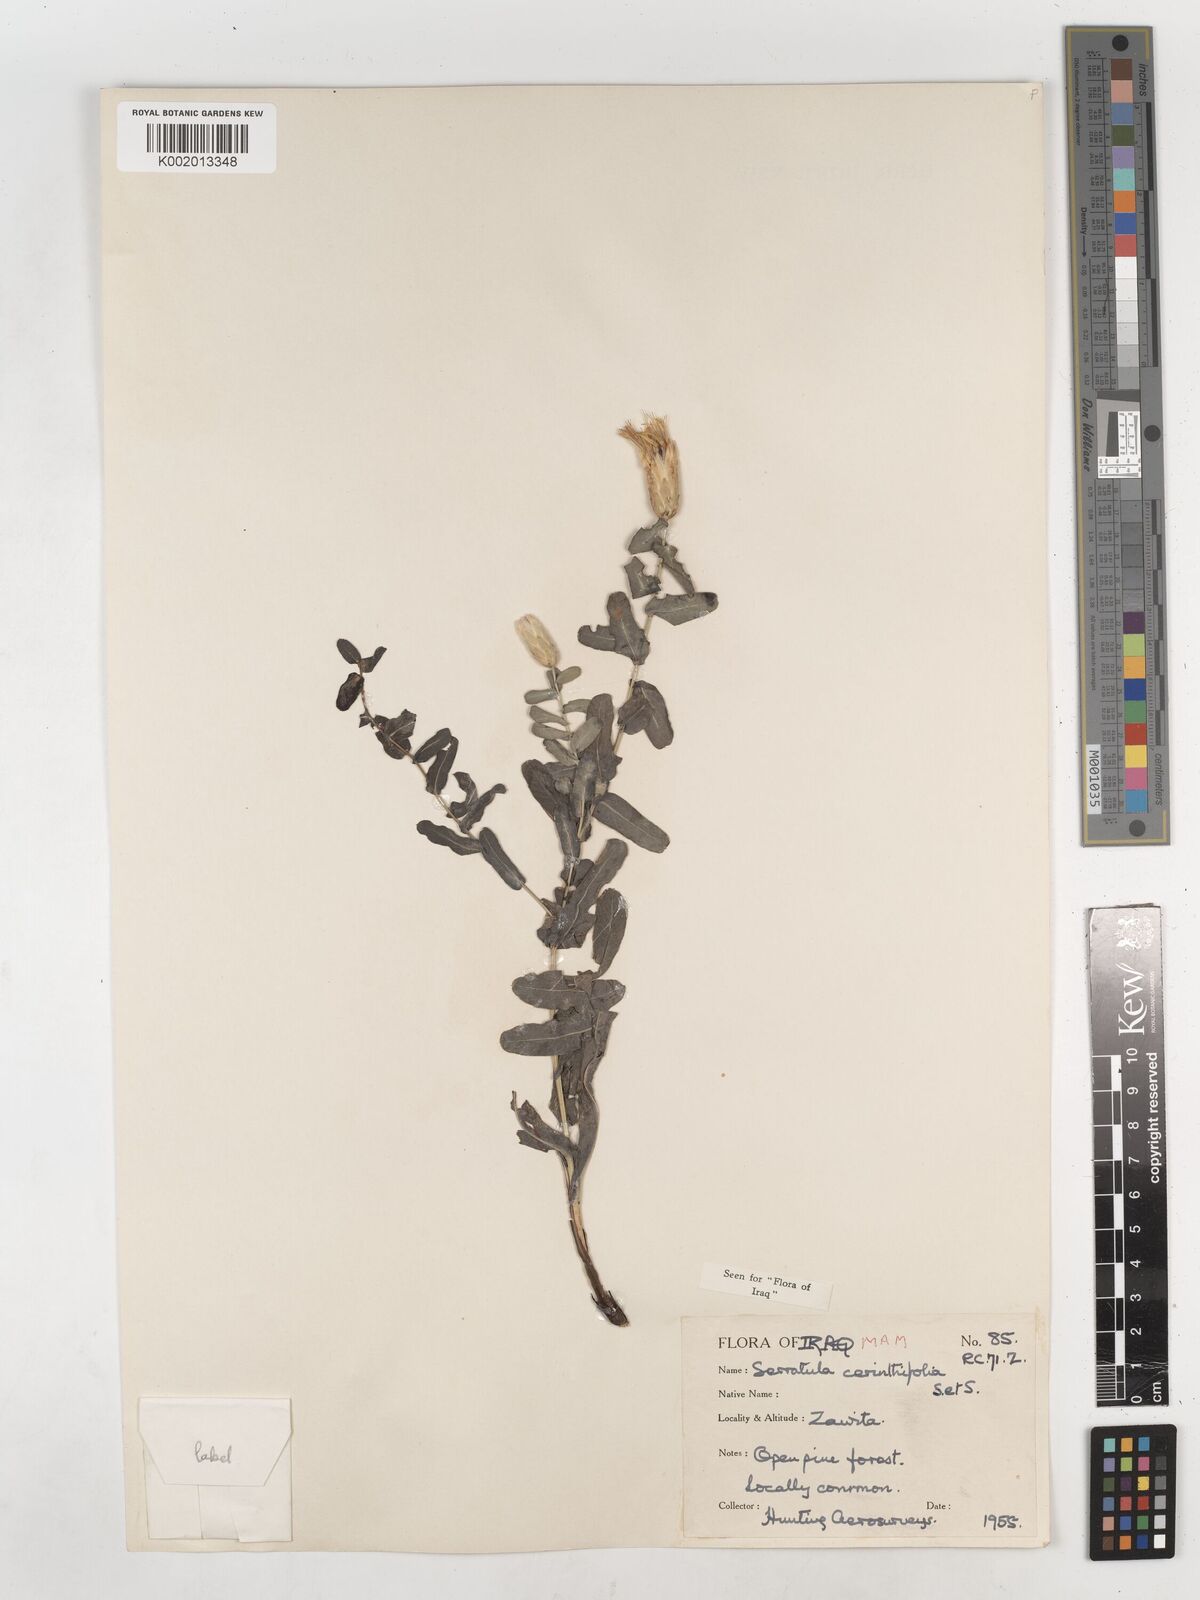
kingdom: Plantae
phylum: Tracheophyta
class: Magnoliopsida
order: Asterales
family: Asteraceae
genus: Klasea
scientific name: Klasea cerinthifolia
